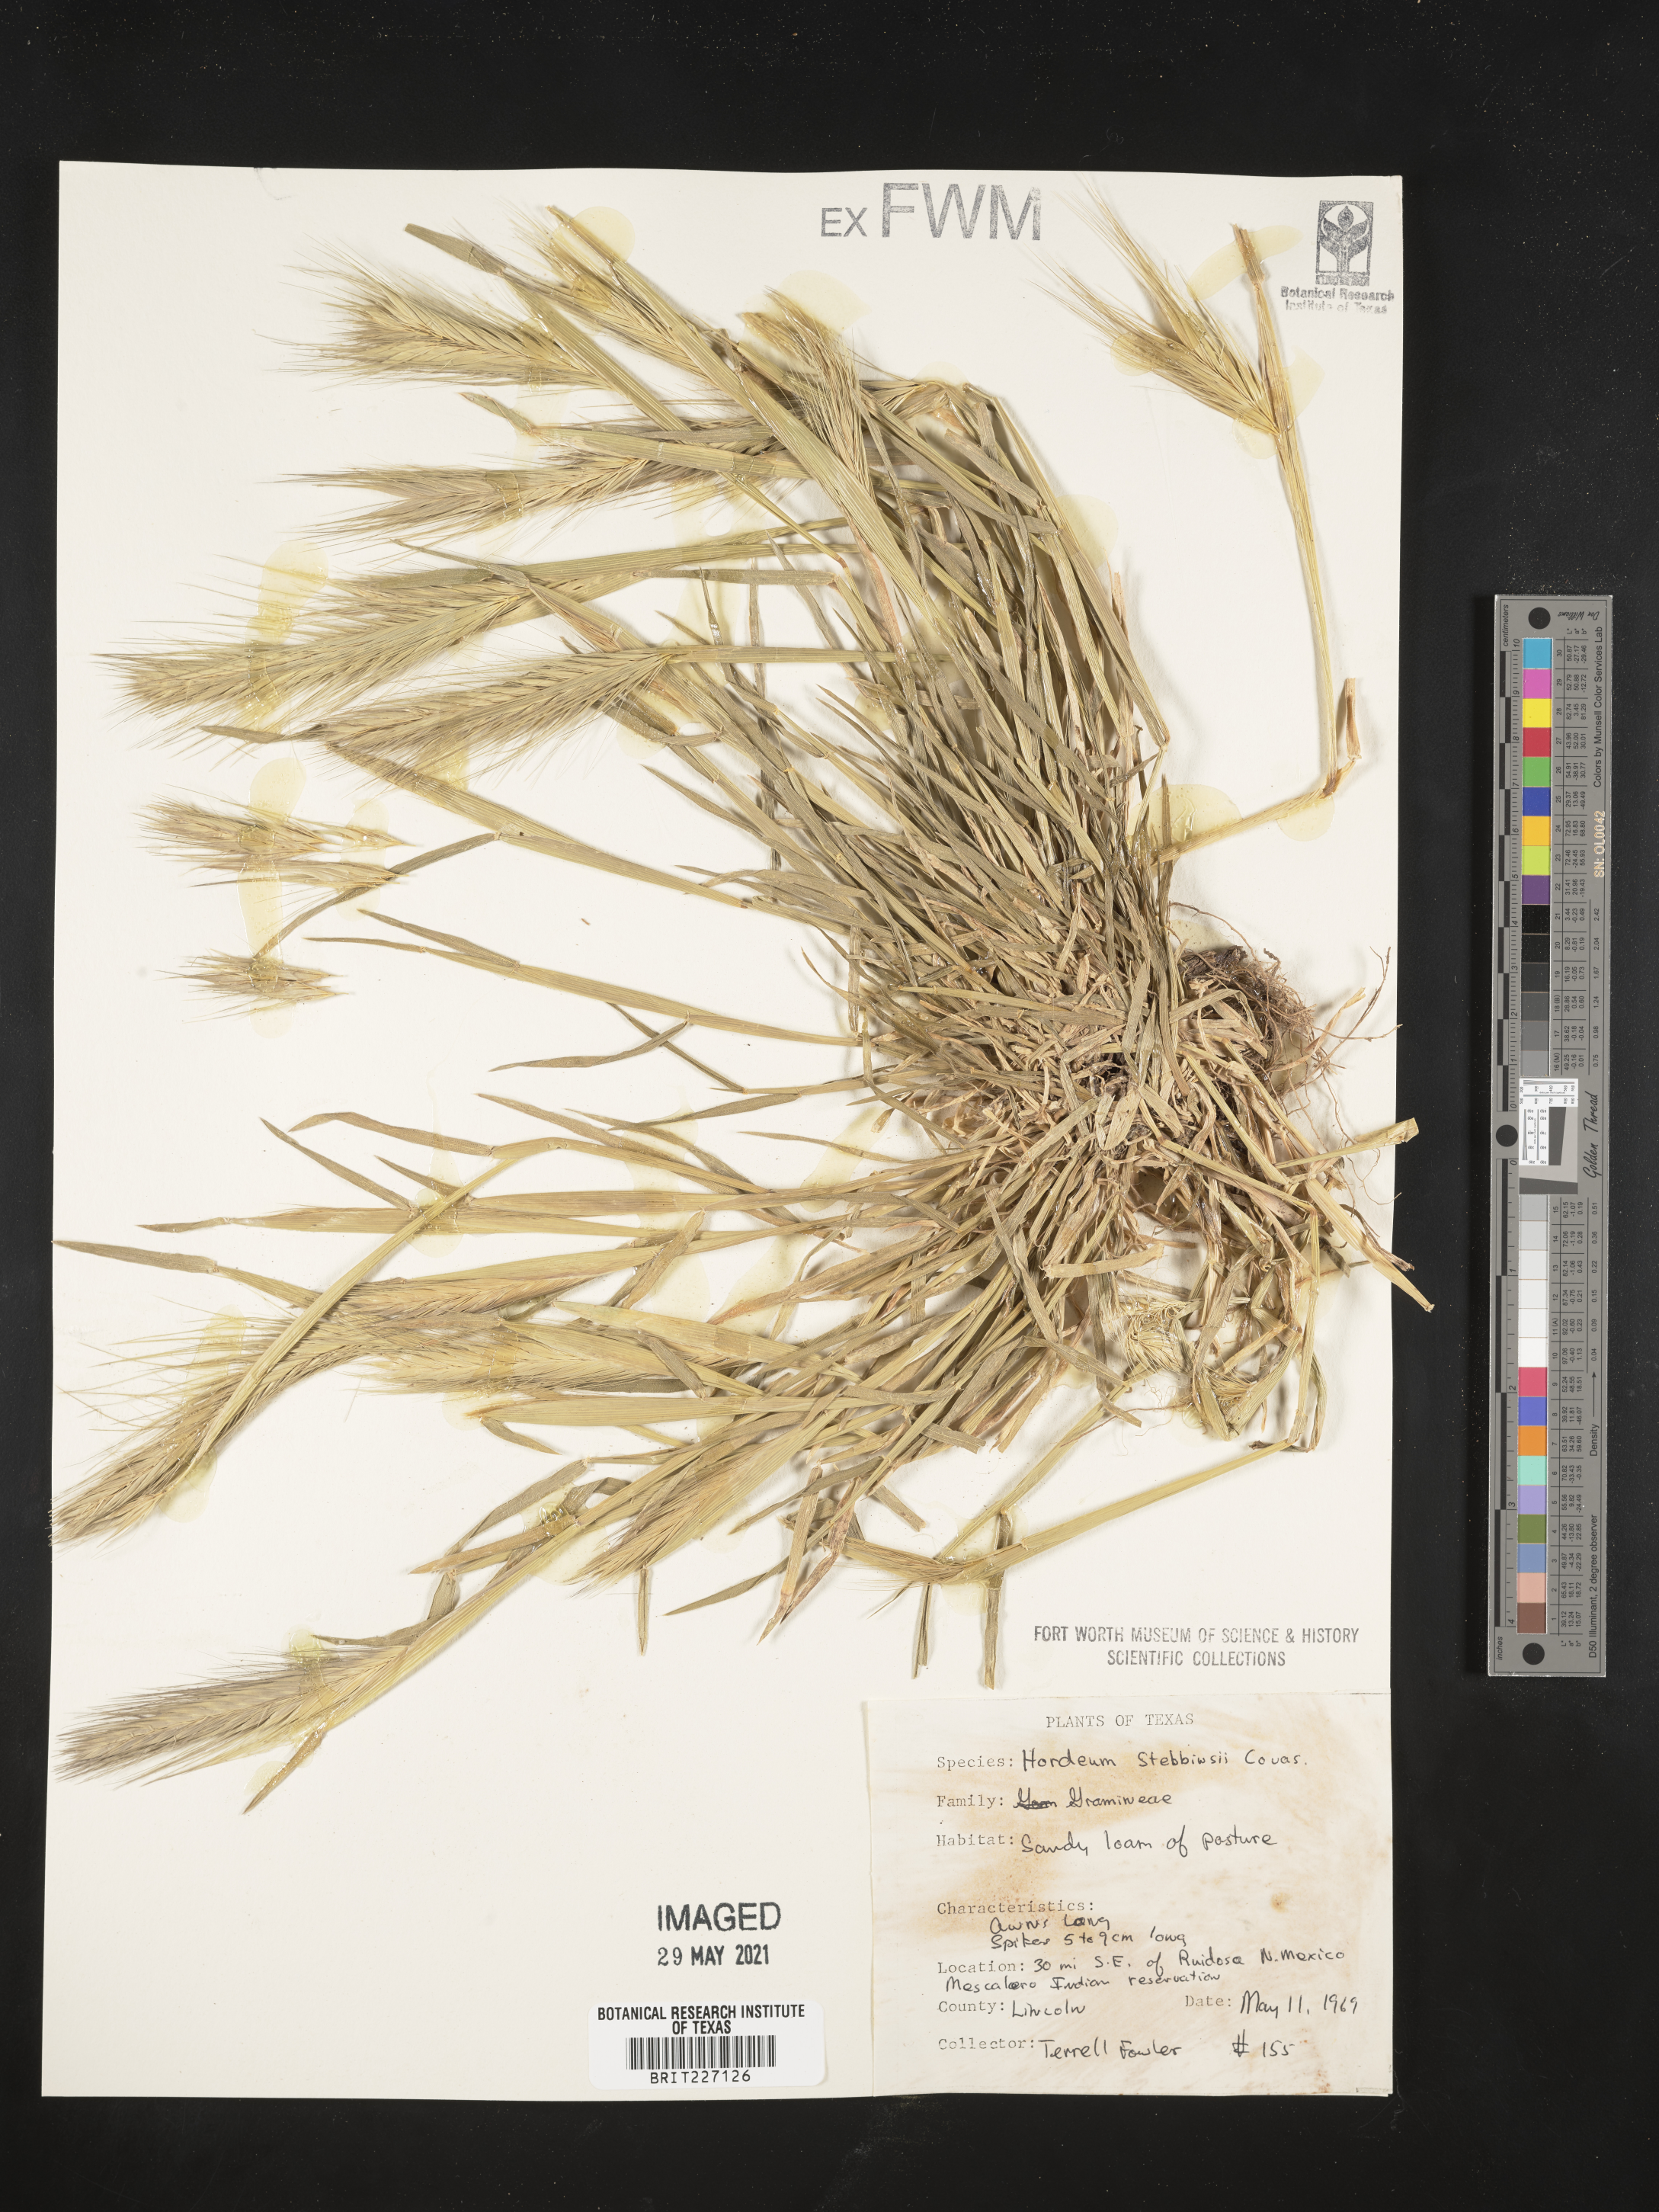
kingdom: Plantae
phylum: Tracheophyta
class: Liliopsida
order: Poales
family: Poaceae
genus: Hordeum
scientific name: Hordeum murinum
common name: Wall barley
